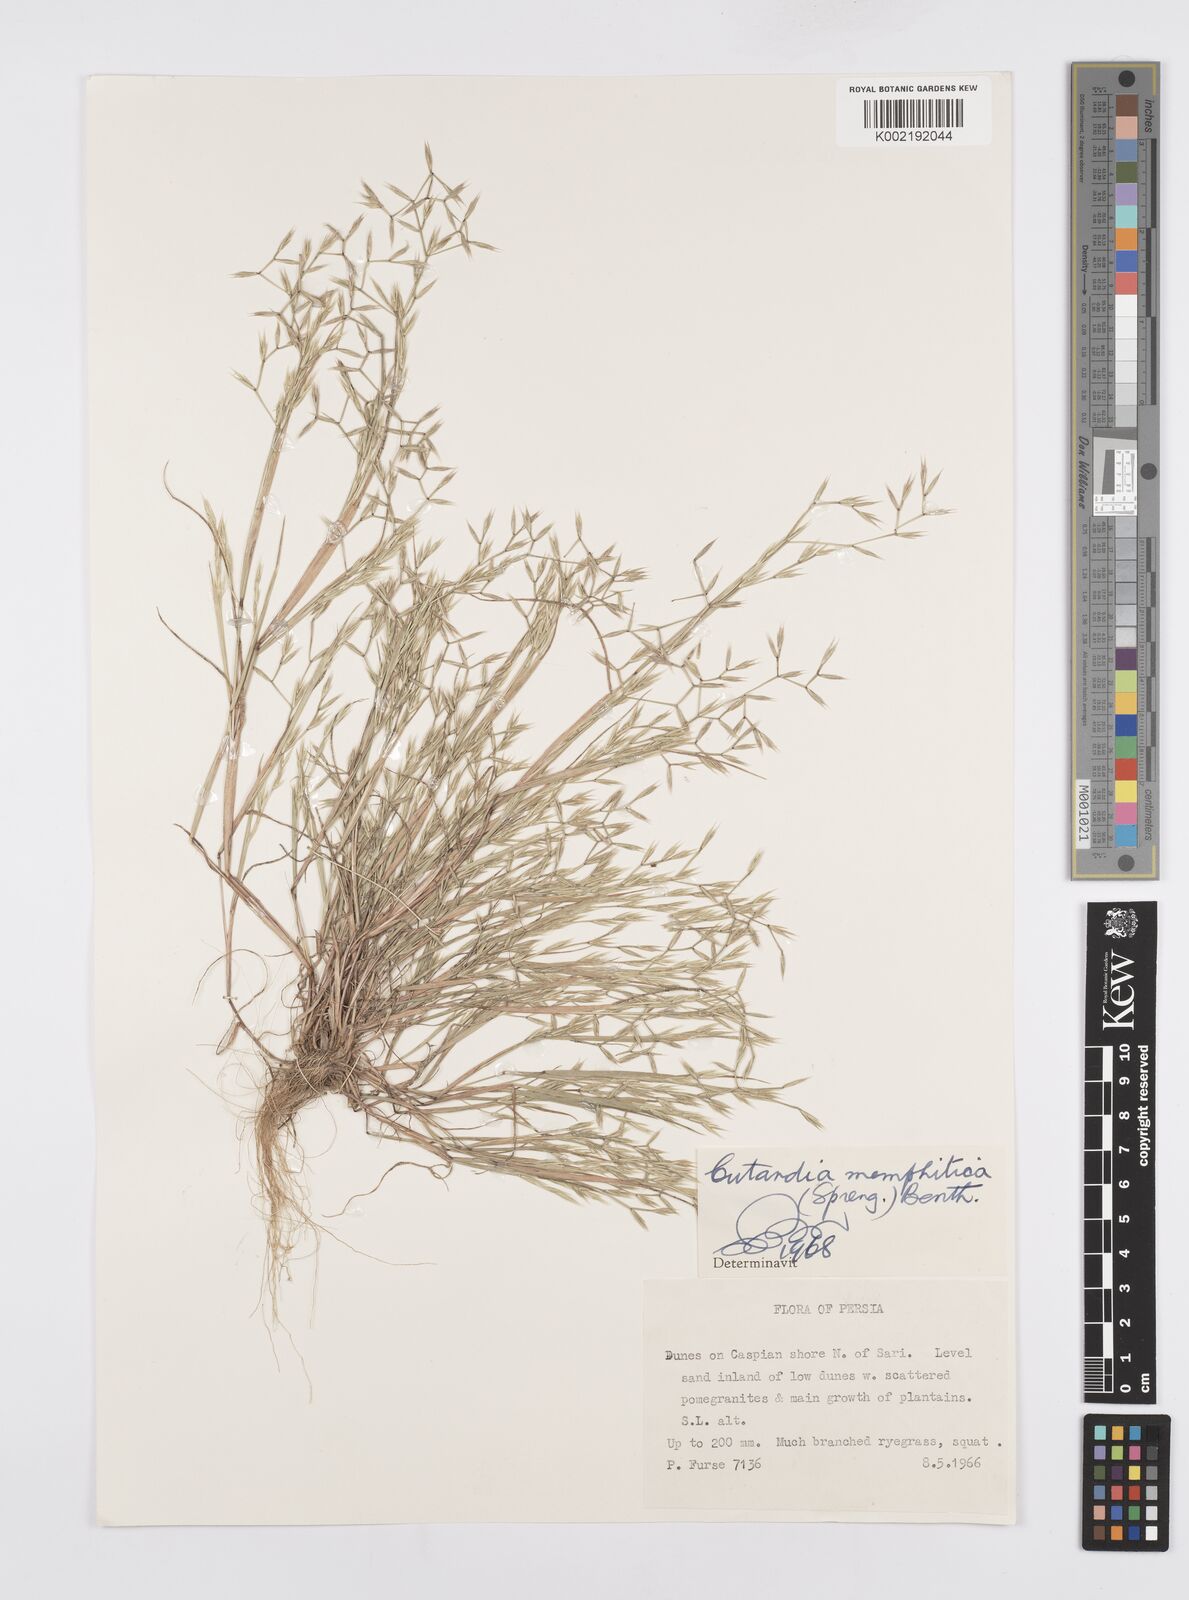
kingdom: Plantae
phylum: Tracheophyta
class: Liliopsida
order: Poales
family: Poaceae
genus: Cutandia
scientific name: Cutandia memphitica
